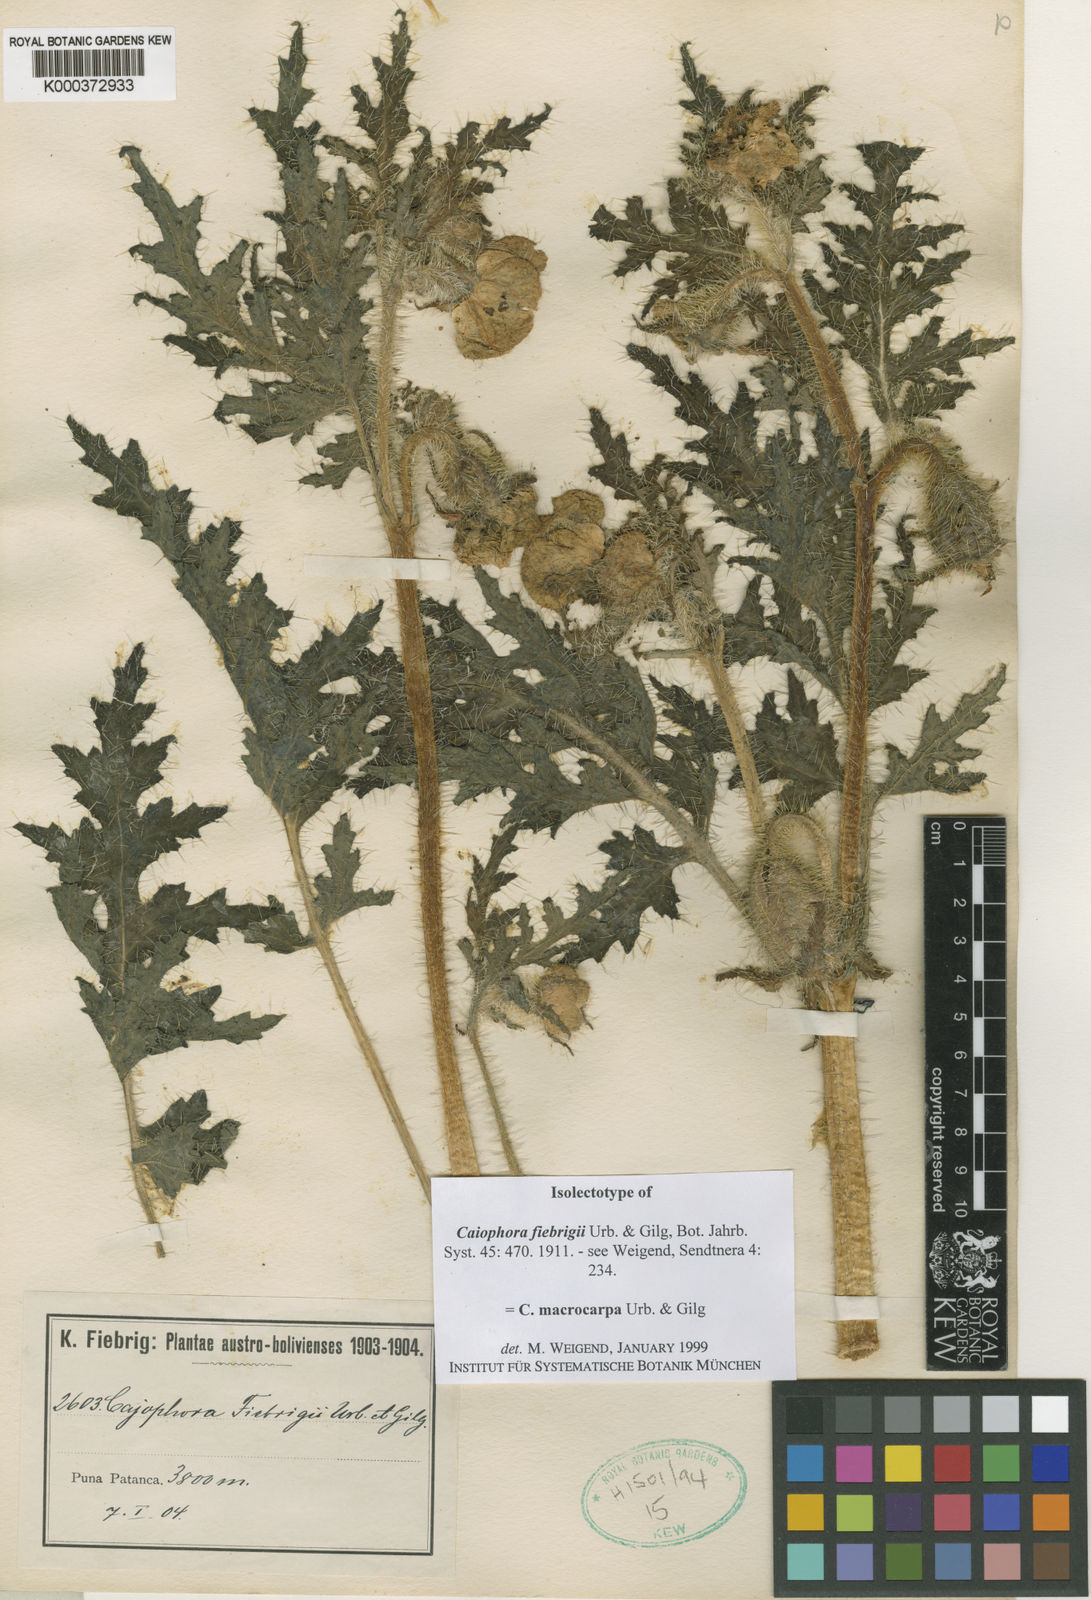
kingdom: Plantae
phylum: Tracheophyta
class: Magnoliopsida
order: Cornales
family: Loasaceae
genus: Caiophora
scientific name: Caiophora chuquitensis
